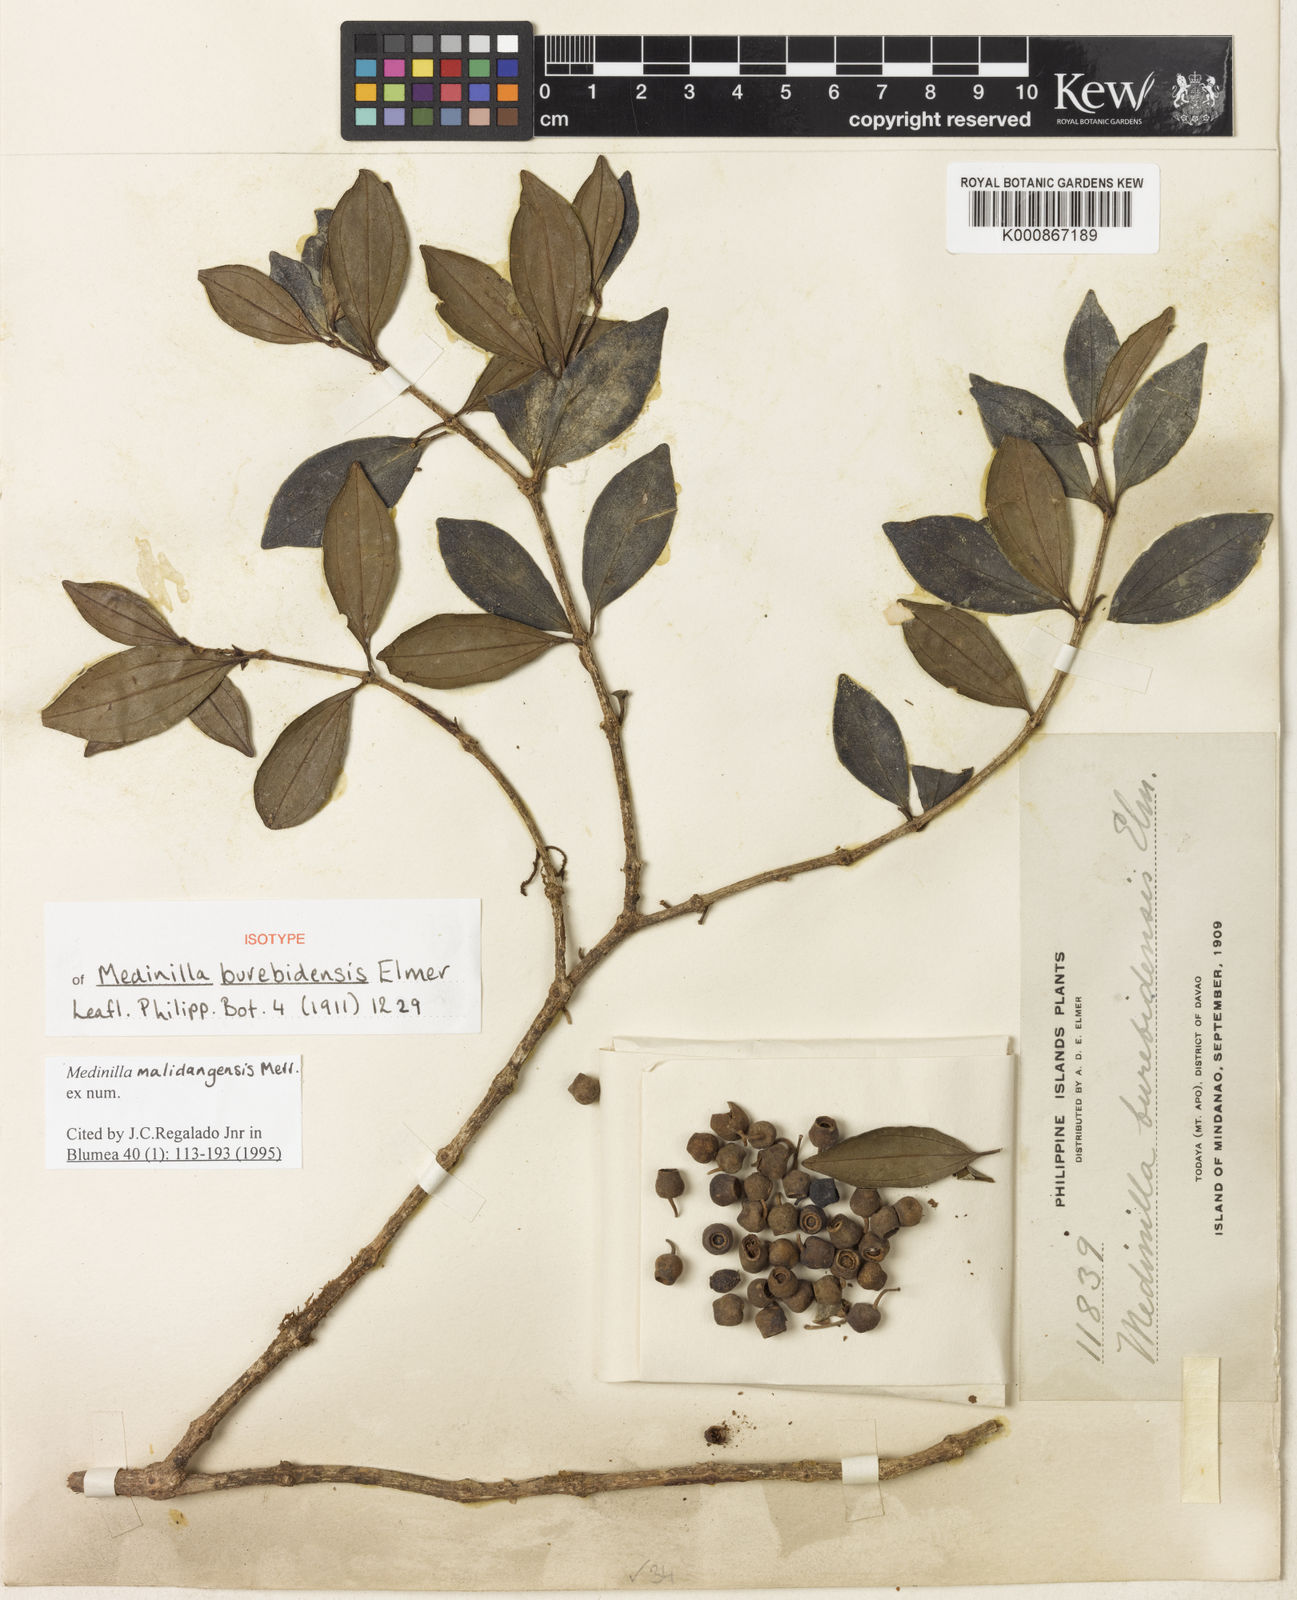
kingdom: Plantae
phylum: Tracheophyta
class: Magnoliopsida
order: Myrtales
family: Melastomataceae
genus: Medinilla
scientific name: Medinilla malindangensis
